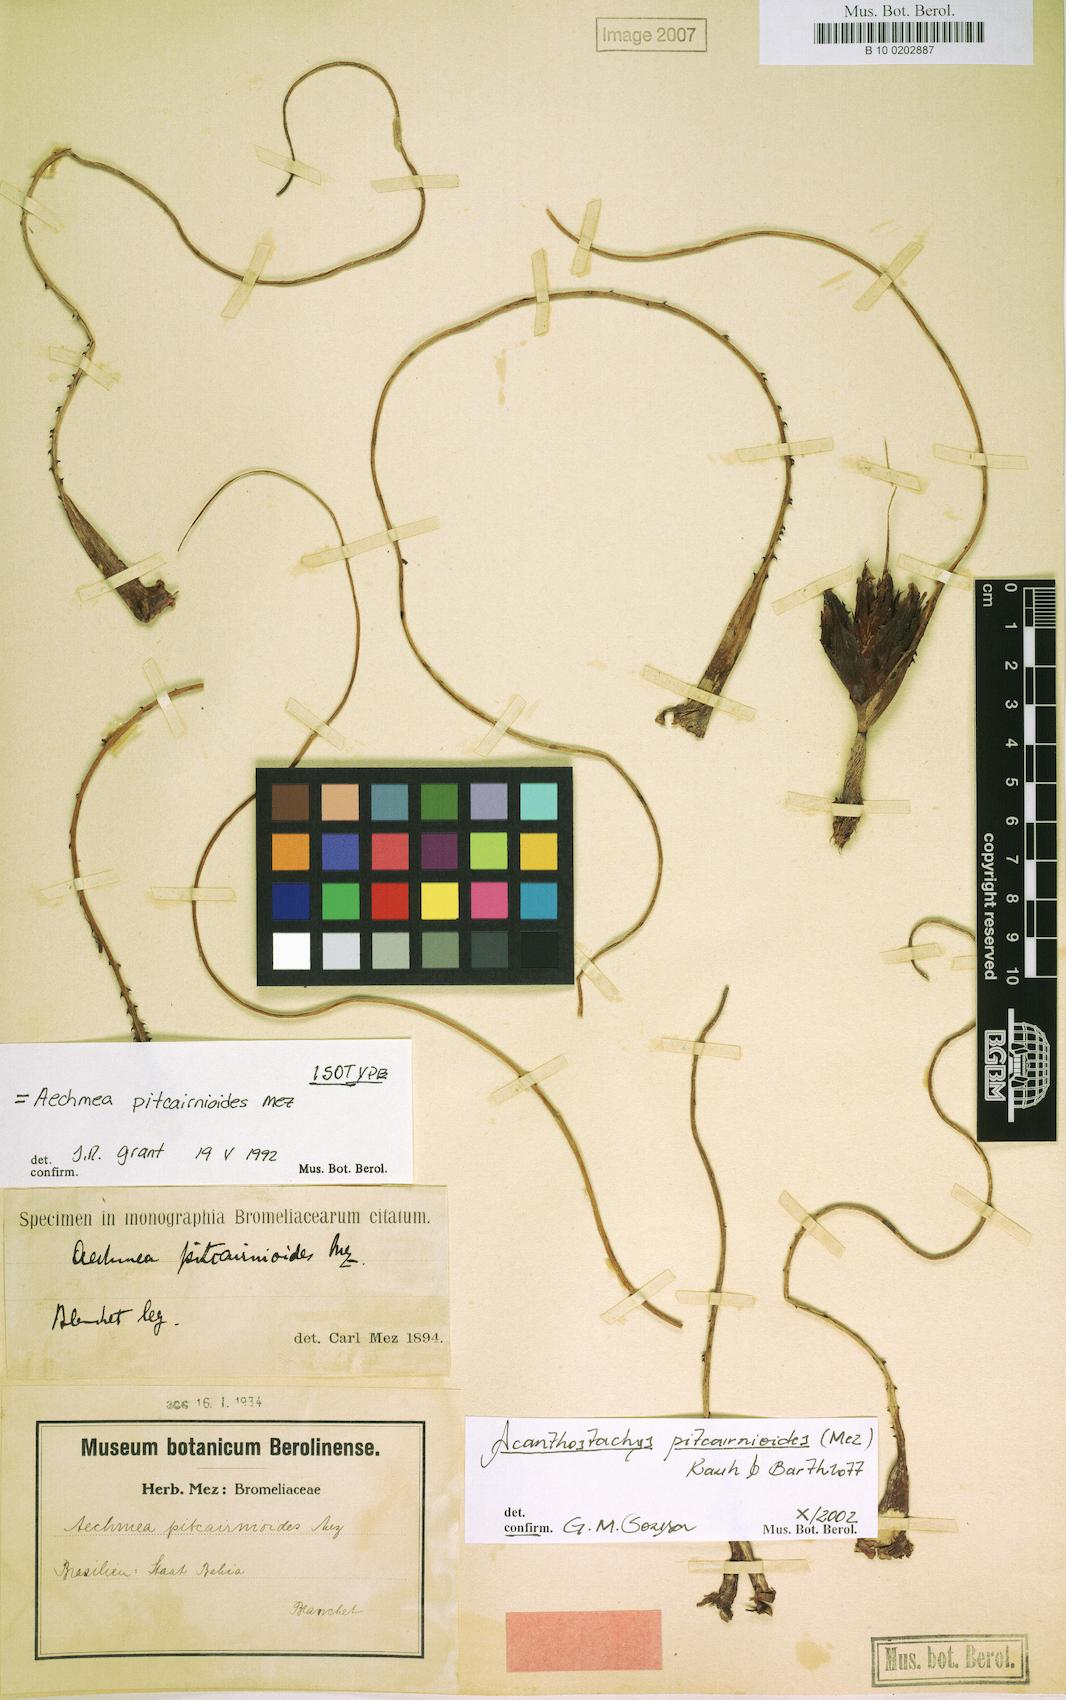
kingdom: Plantae
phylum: Tracheophyta
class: Liliopsida
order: Poales
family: Bromeliaceae
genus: Acanthostachys
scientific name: Acanthostachys pitcairnioides
